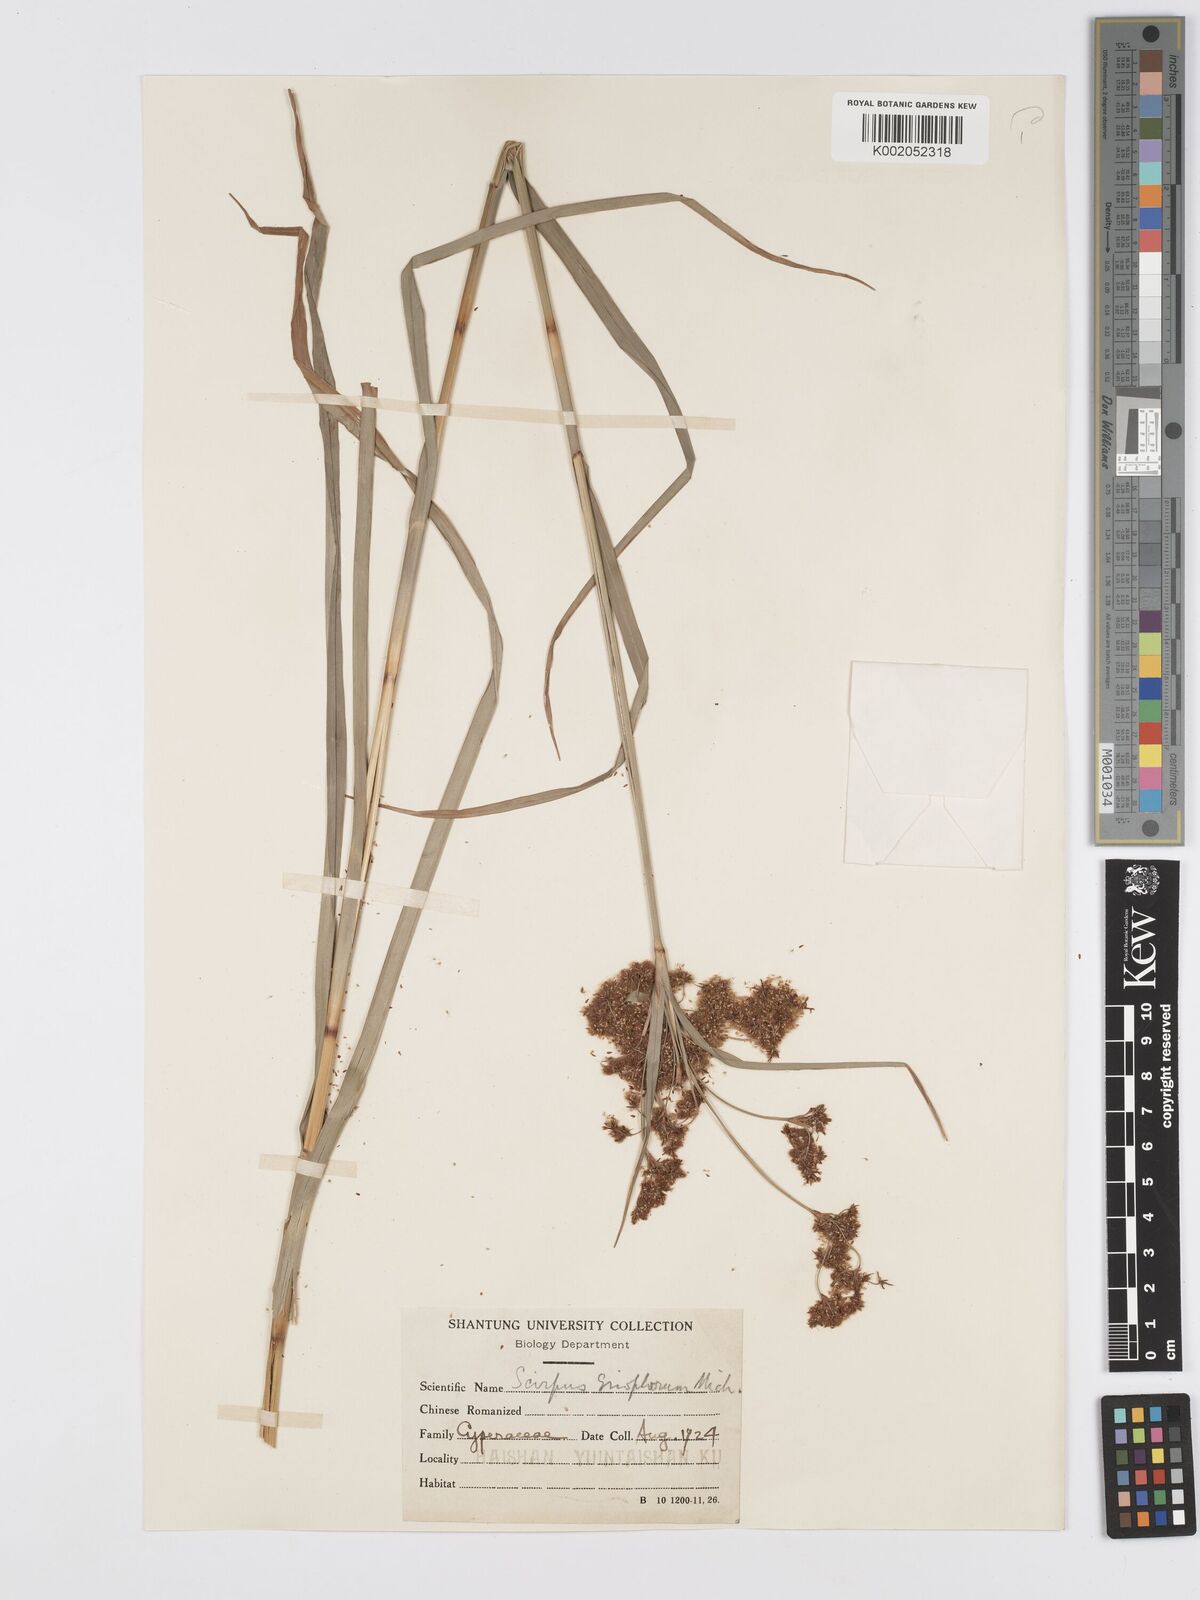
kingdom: Plantae
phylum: Tracheophyta
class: Liliopsida
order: Poales
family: Cyperaceae
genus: Scirpus
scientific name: Scirpus cyperinus
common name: Black-sheathed bulrush
